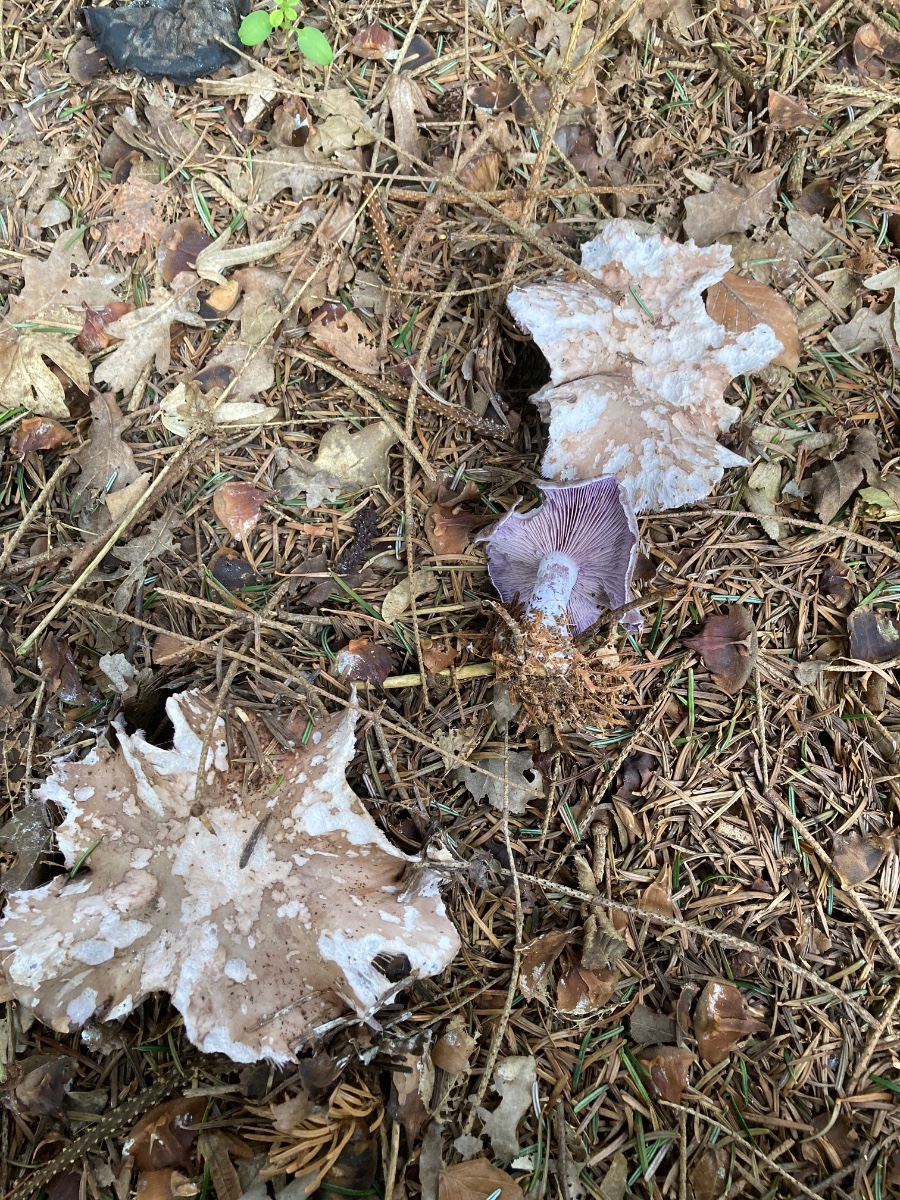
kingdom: Fungi
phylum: Basidiomycota
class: Agaricomycetes
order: Agaricales
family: Tricholomataceae
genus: Lepista
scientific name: Lepista nuda
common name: violet hekseringshat
